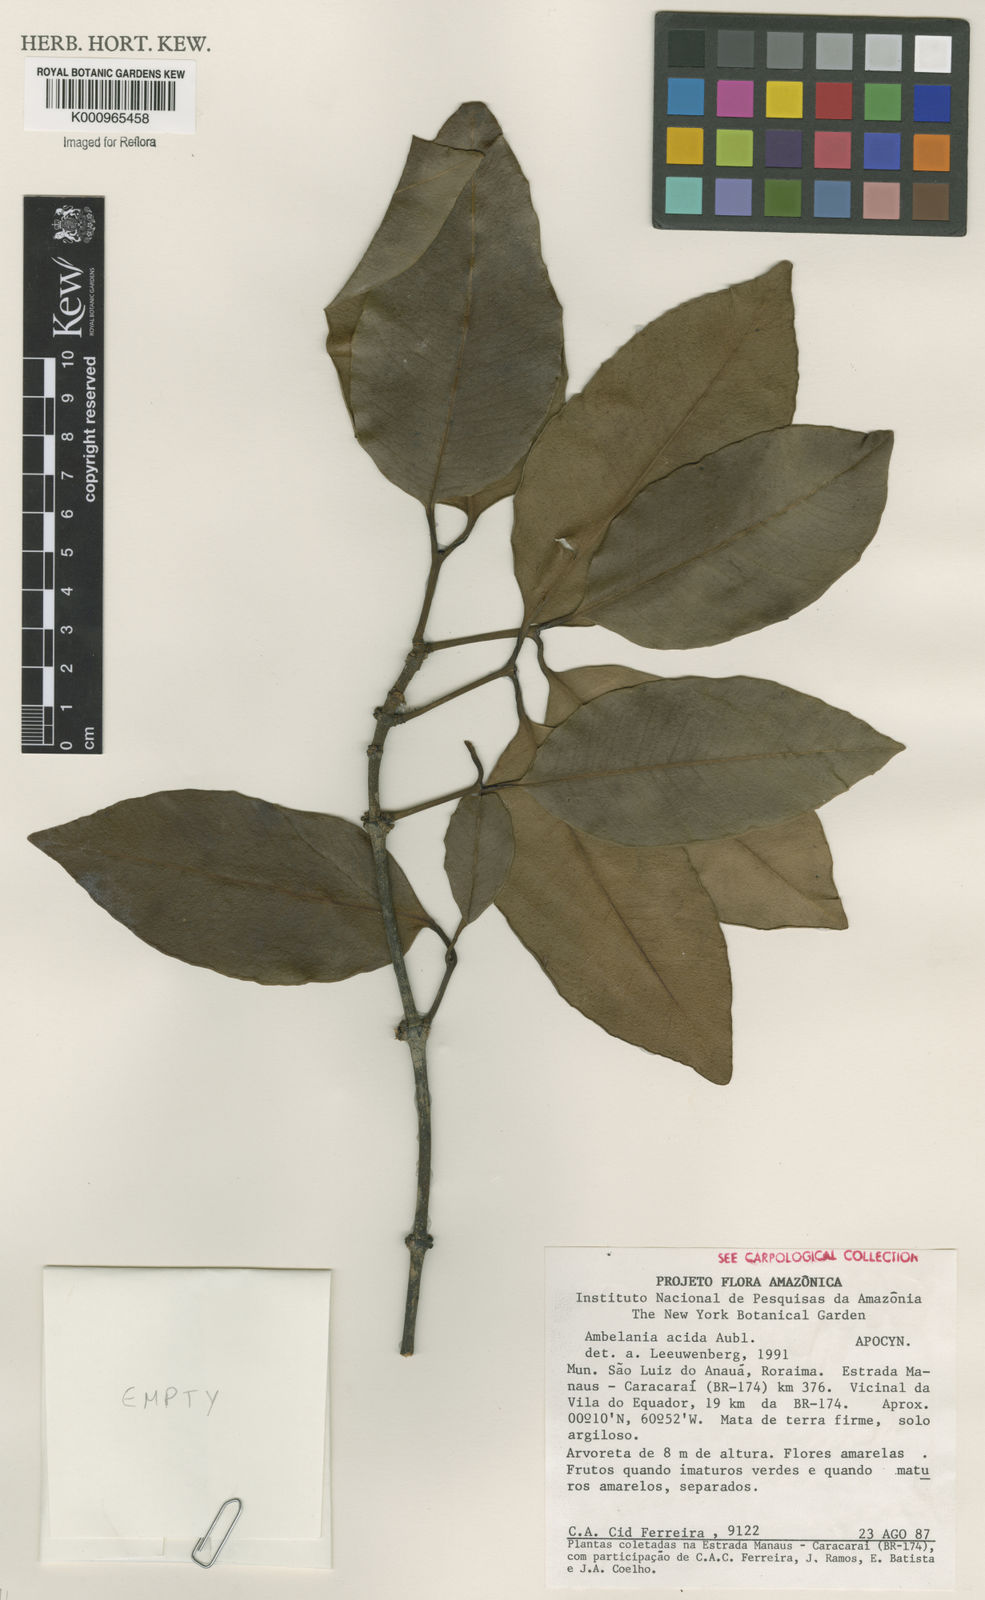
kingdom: Plantae
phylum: Tracheophyta
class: Magnoliopsida
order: Gentianales
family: Apocynaceae
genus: Ambelania
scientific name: Ambelania acida
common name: Bagasse
